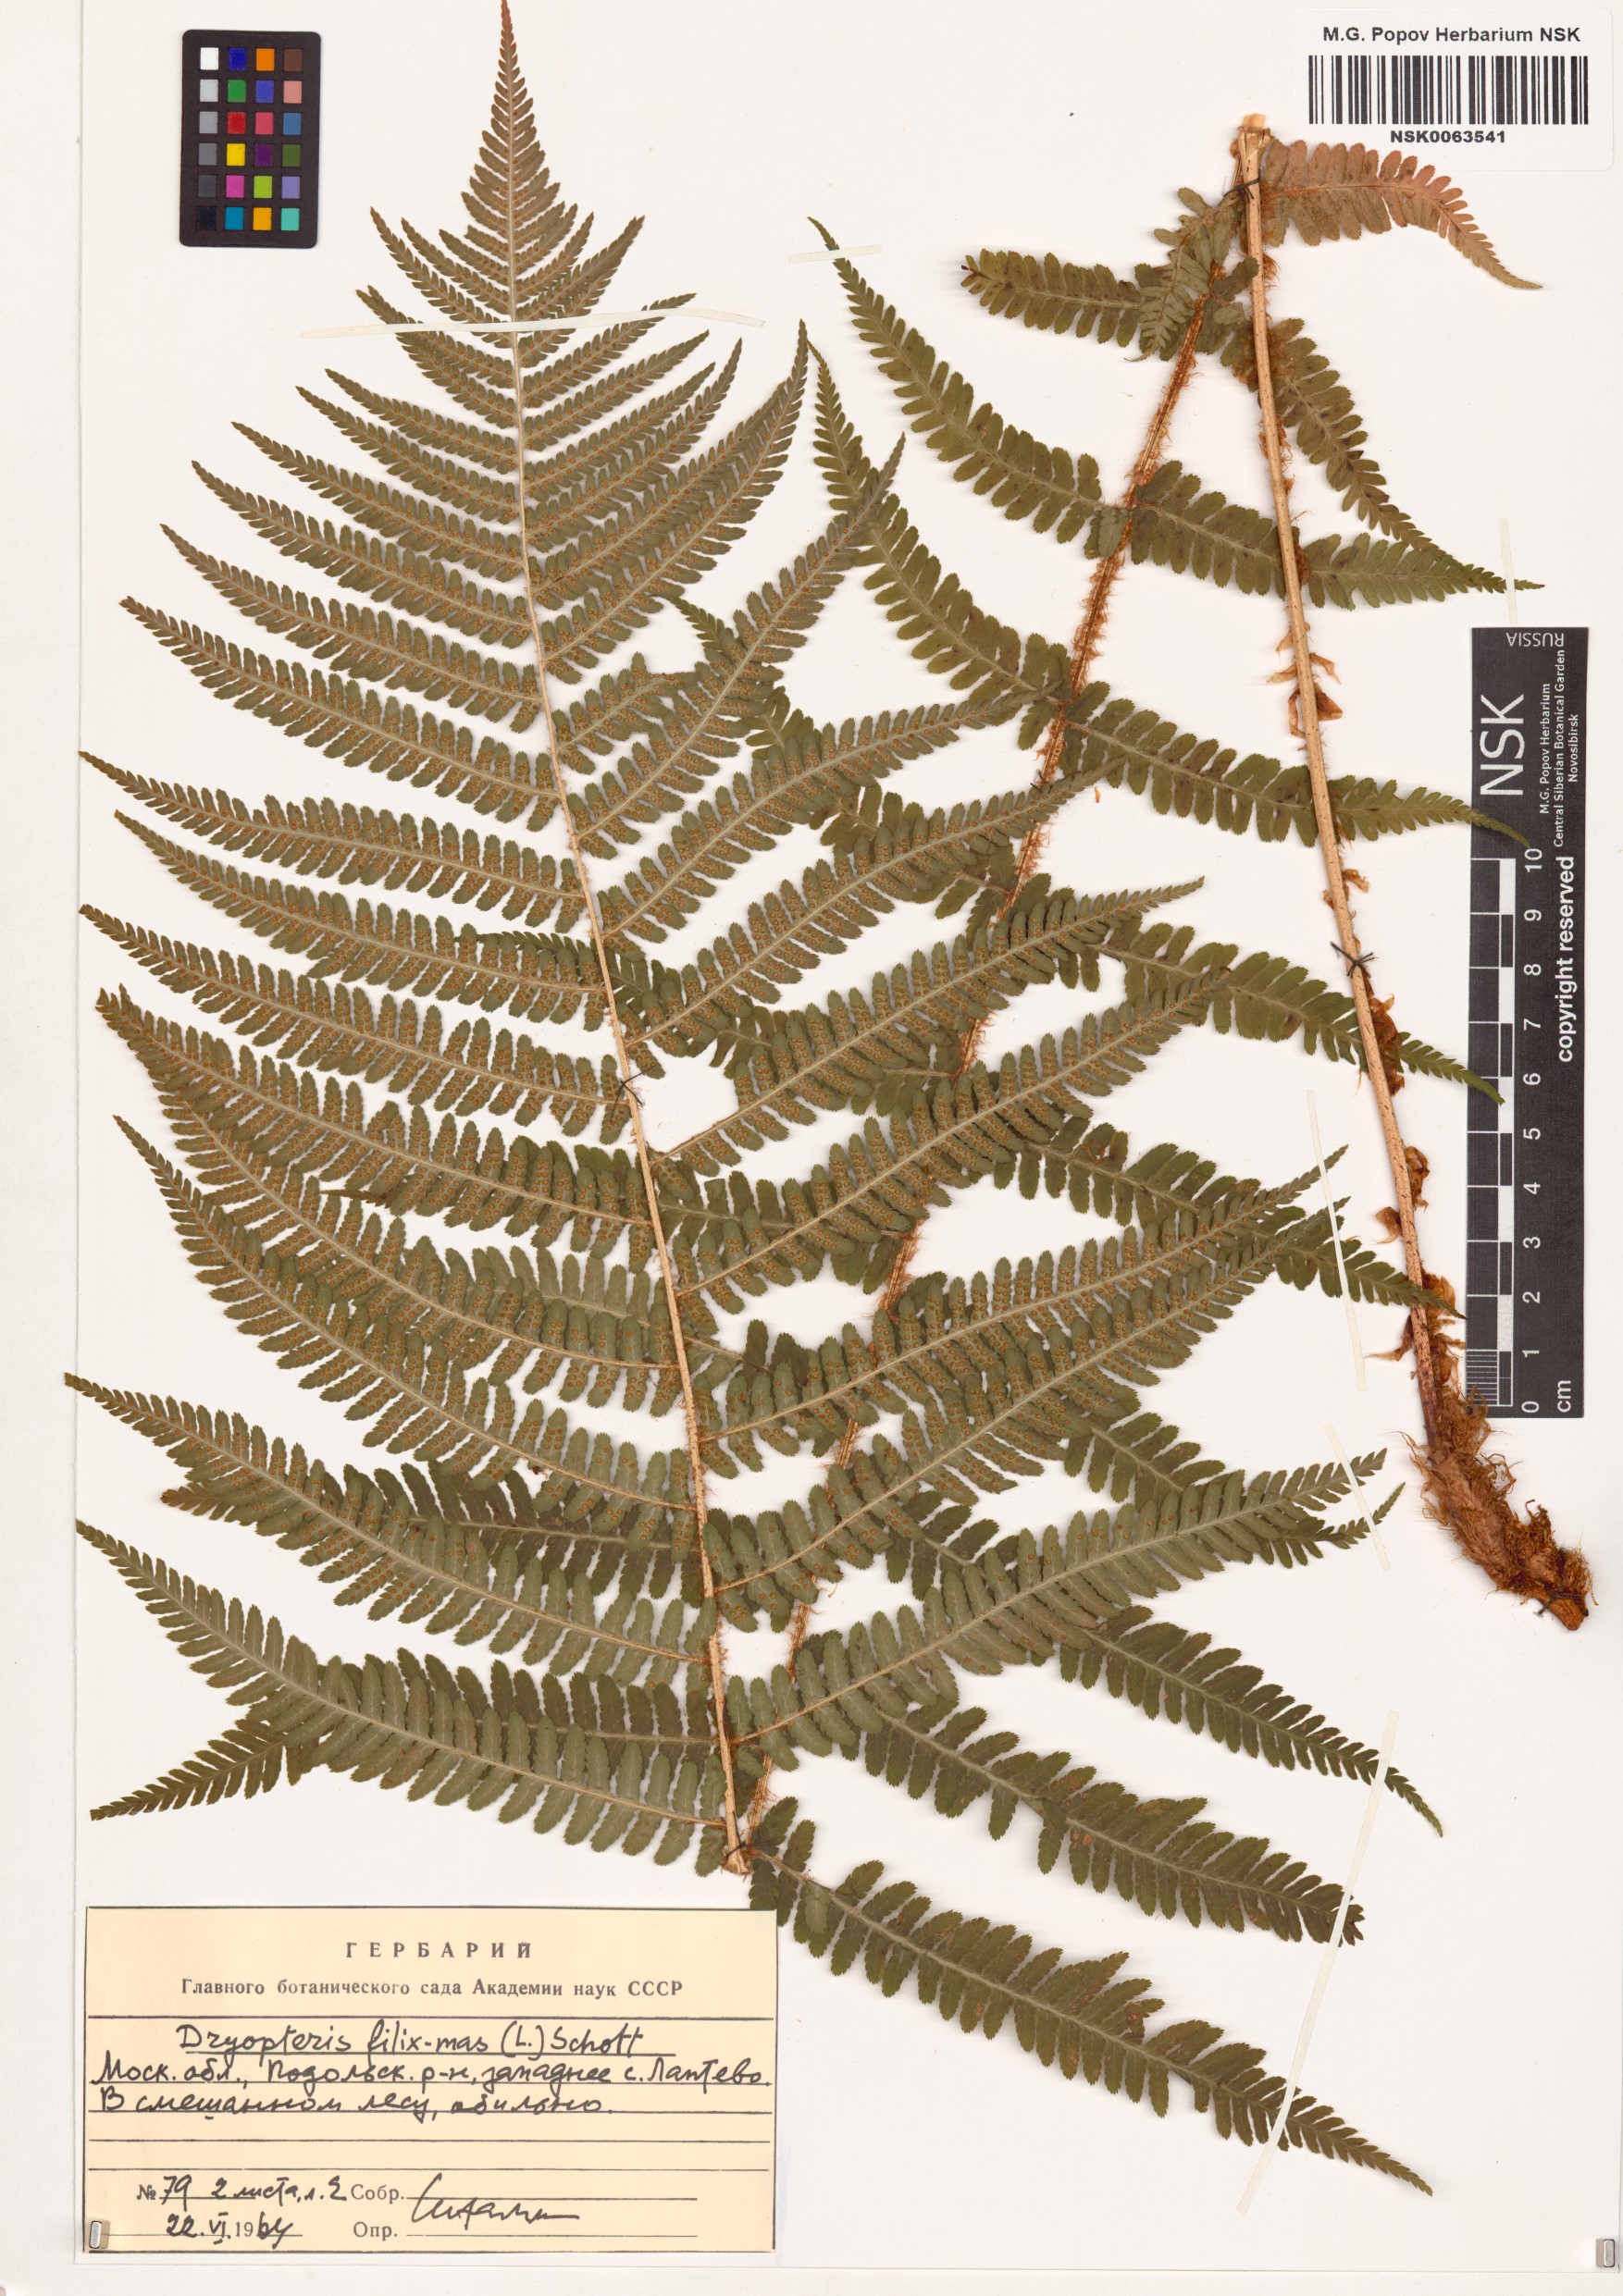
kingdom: Plantae
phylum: Tracheophyta
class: Polypodiopsida
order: Polypodiales
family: Dryopteridaceae
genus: Dryopteris
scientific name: Dryopteris filix-mas
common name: Male fern
